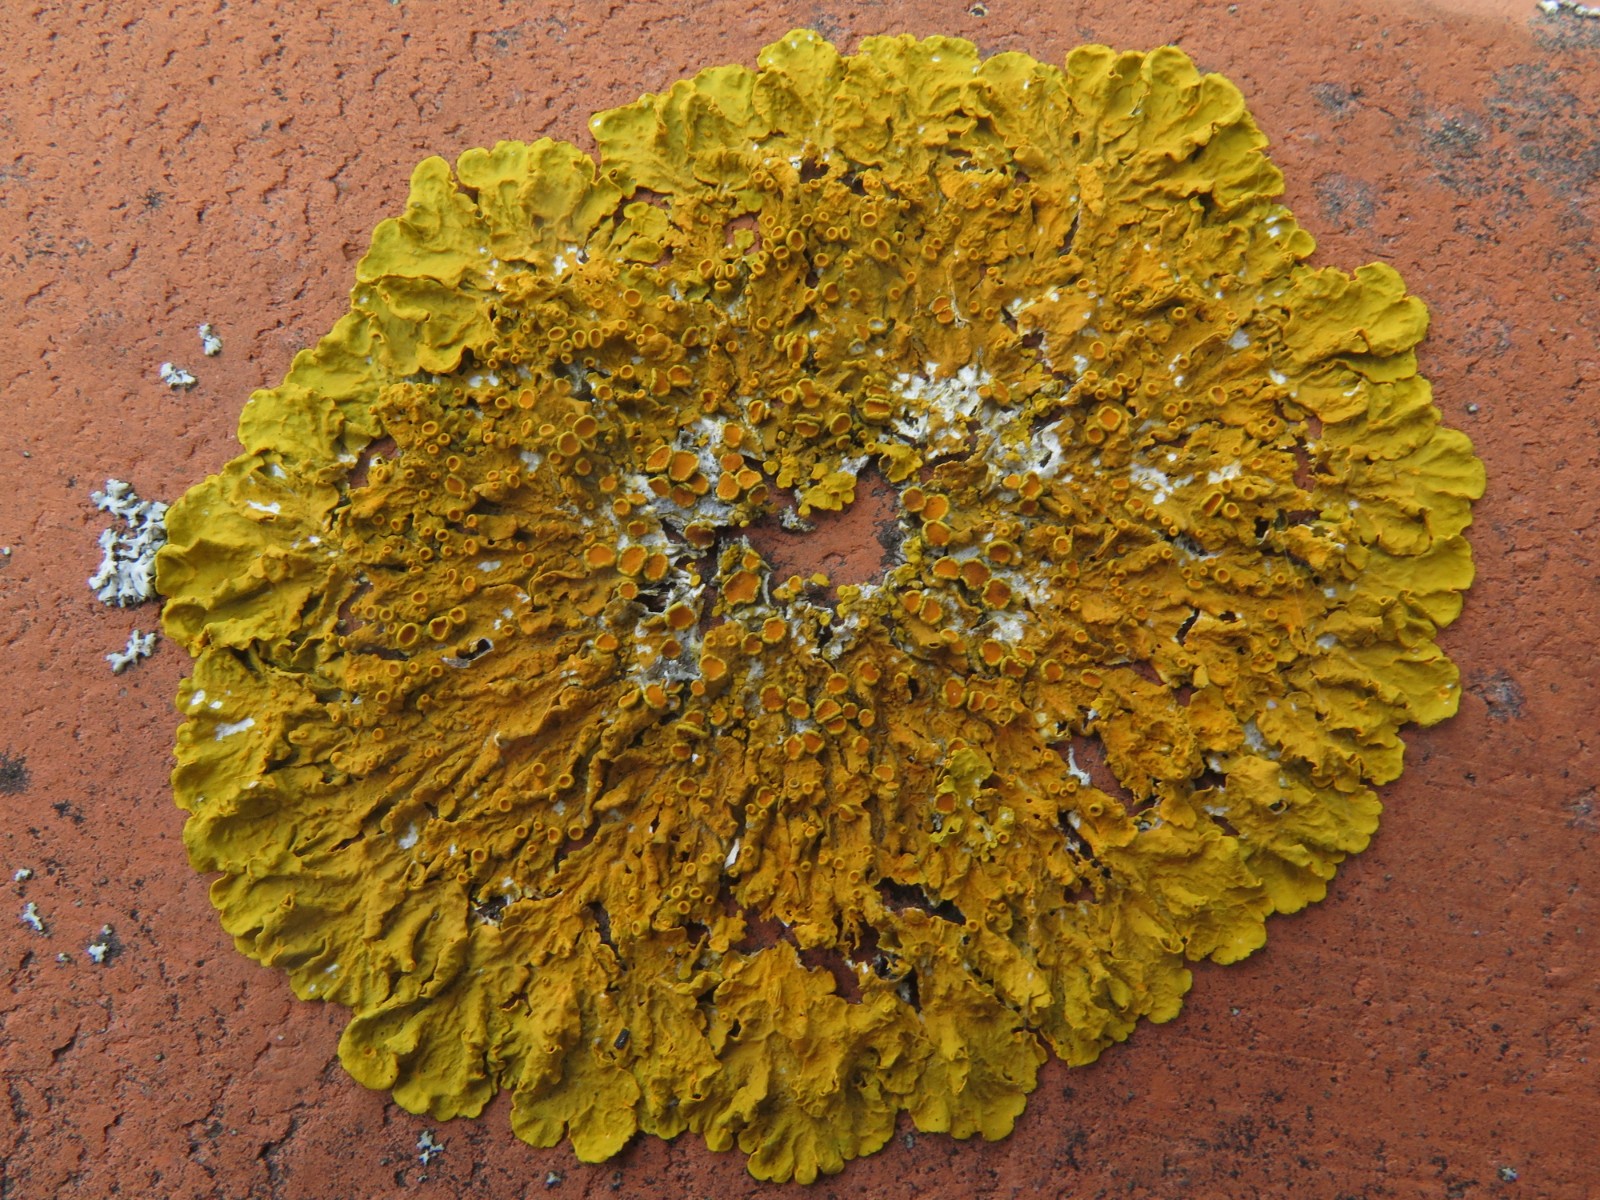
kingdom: Fungi
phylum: Ascomycota
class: Lecanoromycetes
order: Teloschistales
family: Teloschistaceae
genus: Xanthoria
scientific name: Xanthoria parietina
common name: almindelig væggelav
